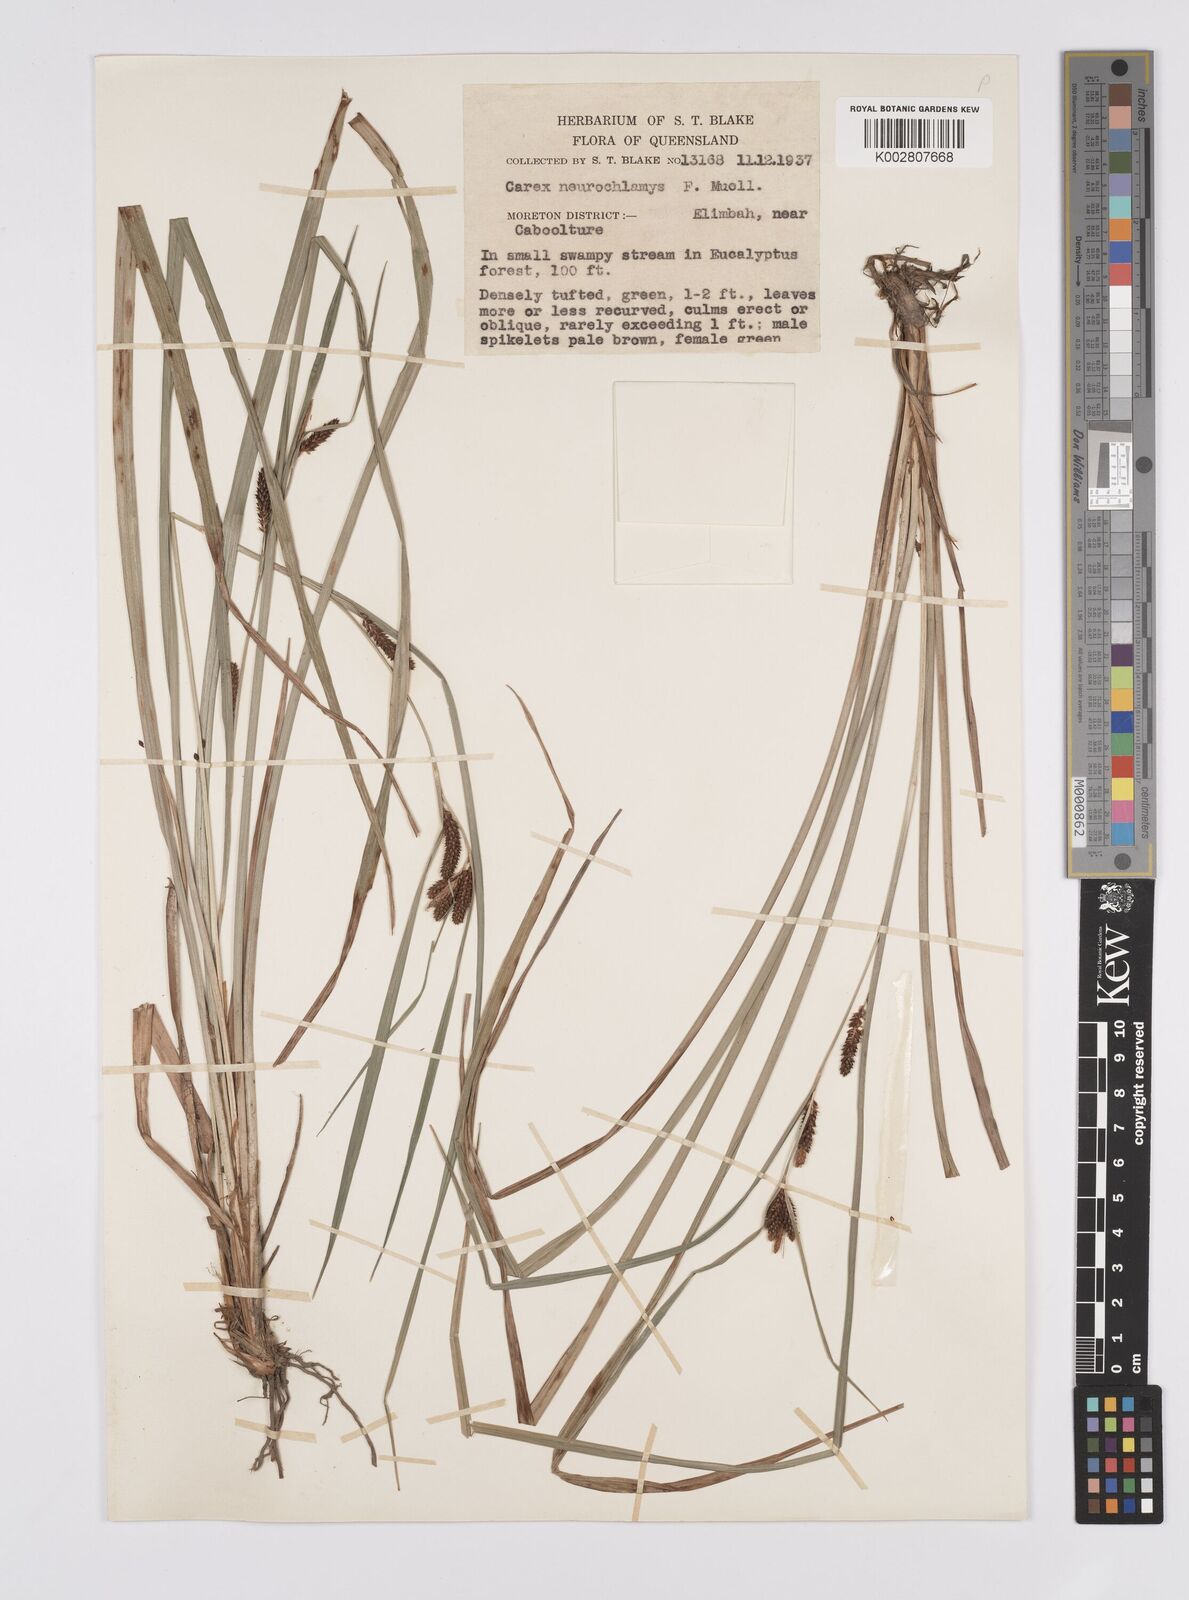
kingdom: Plantae
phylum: Tracheophyta
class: Liliopsida
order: Poales
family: Cyperaceae
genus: Carex
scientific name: Carex maculata
